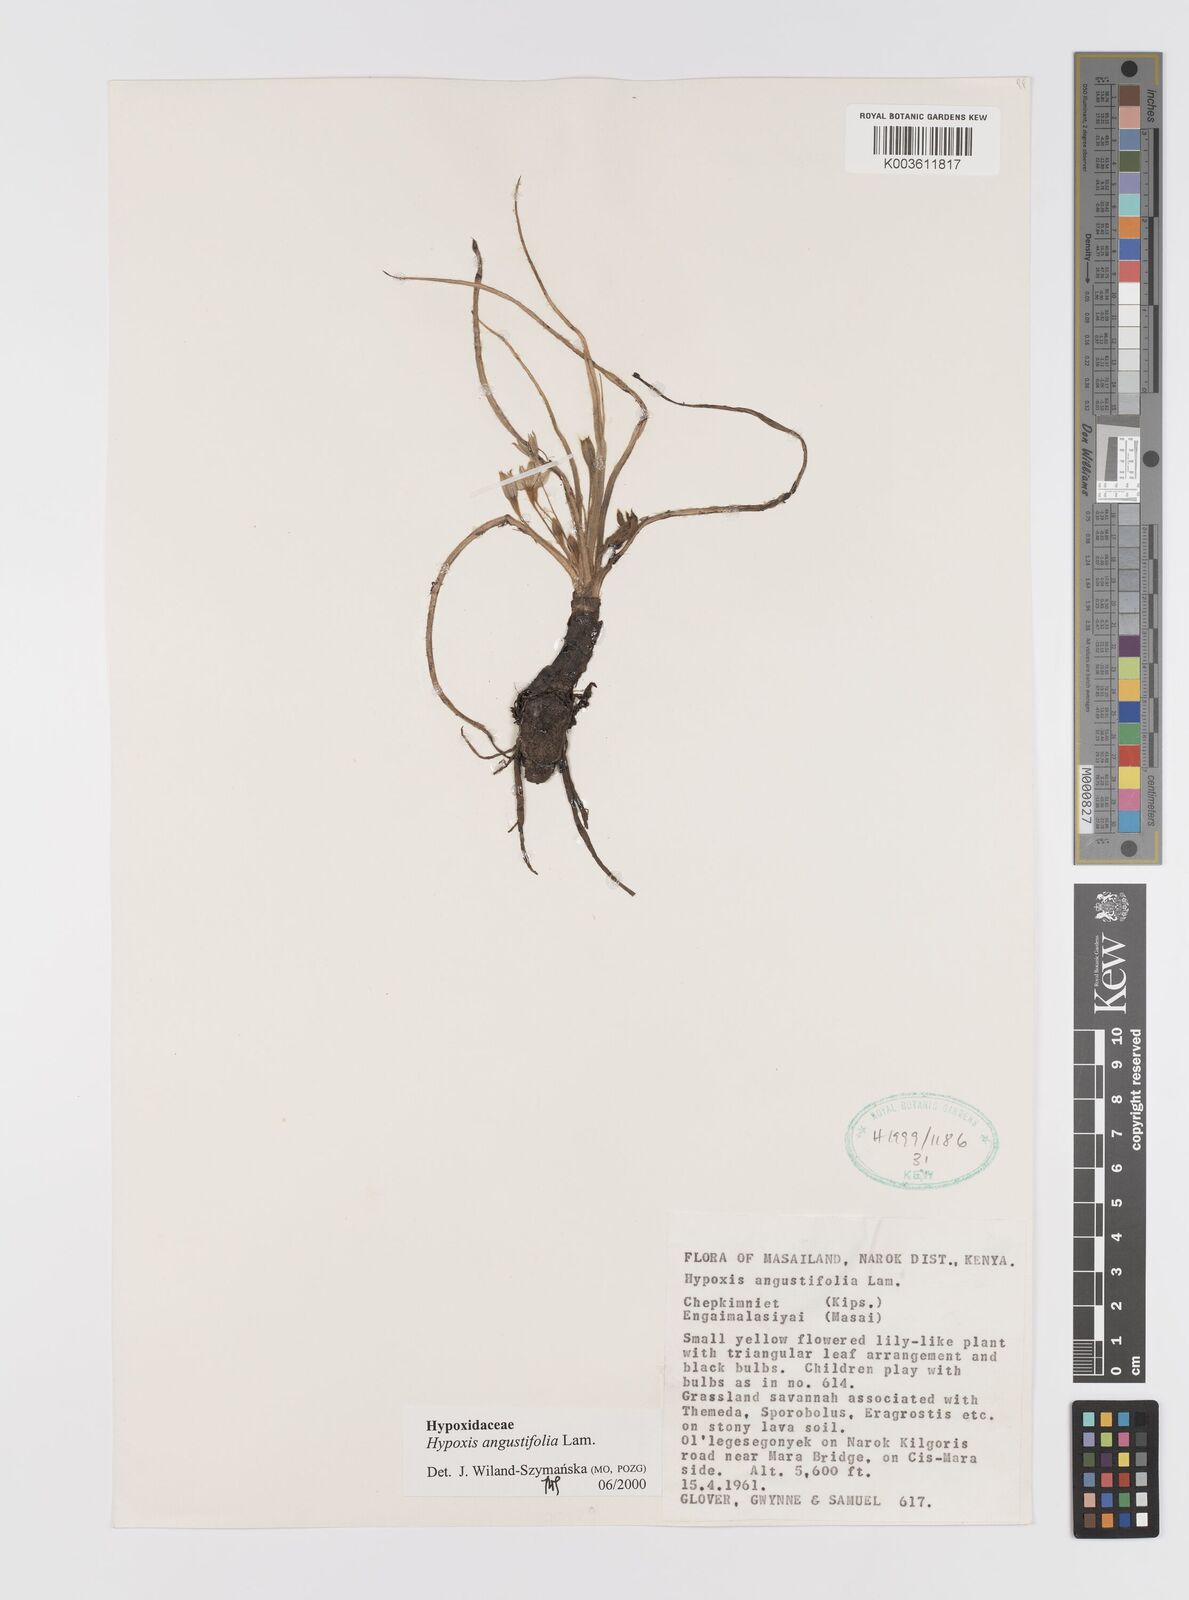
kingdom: Plantae
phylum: Tracheophyta
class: Liliopsida
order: Asparagales
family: Hypoxidaceae
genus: Hypoxis
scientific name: Hypoxis angustifolia
